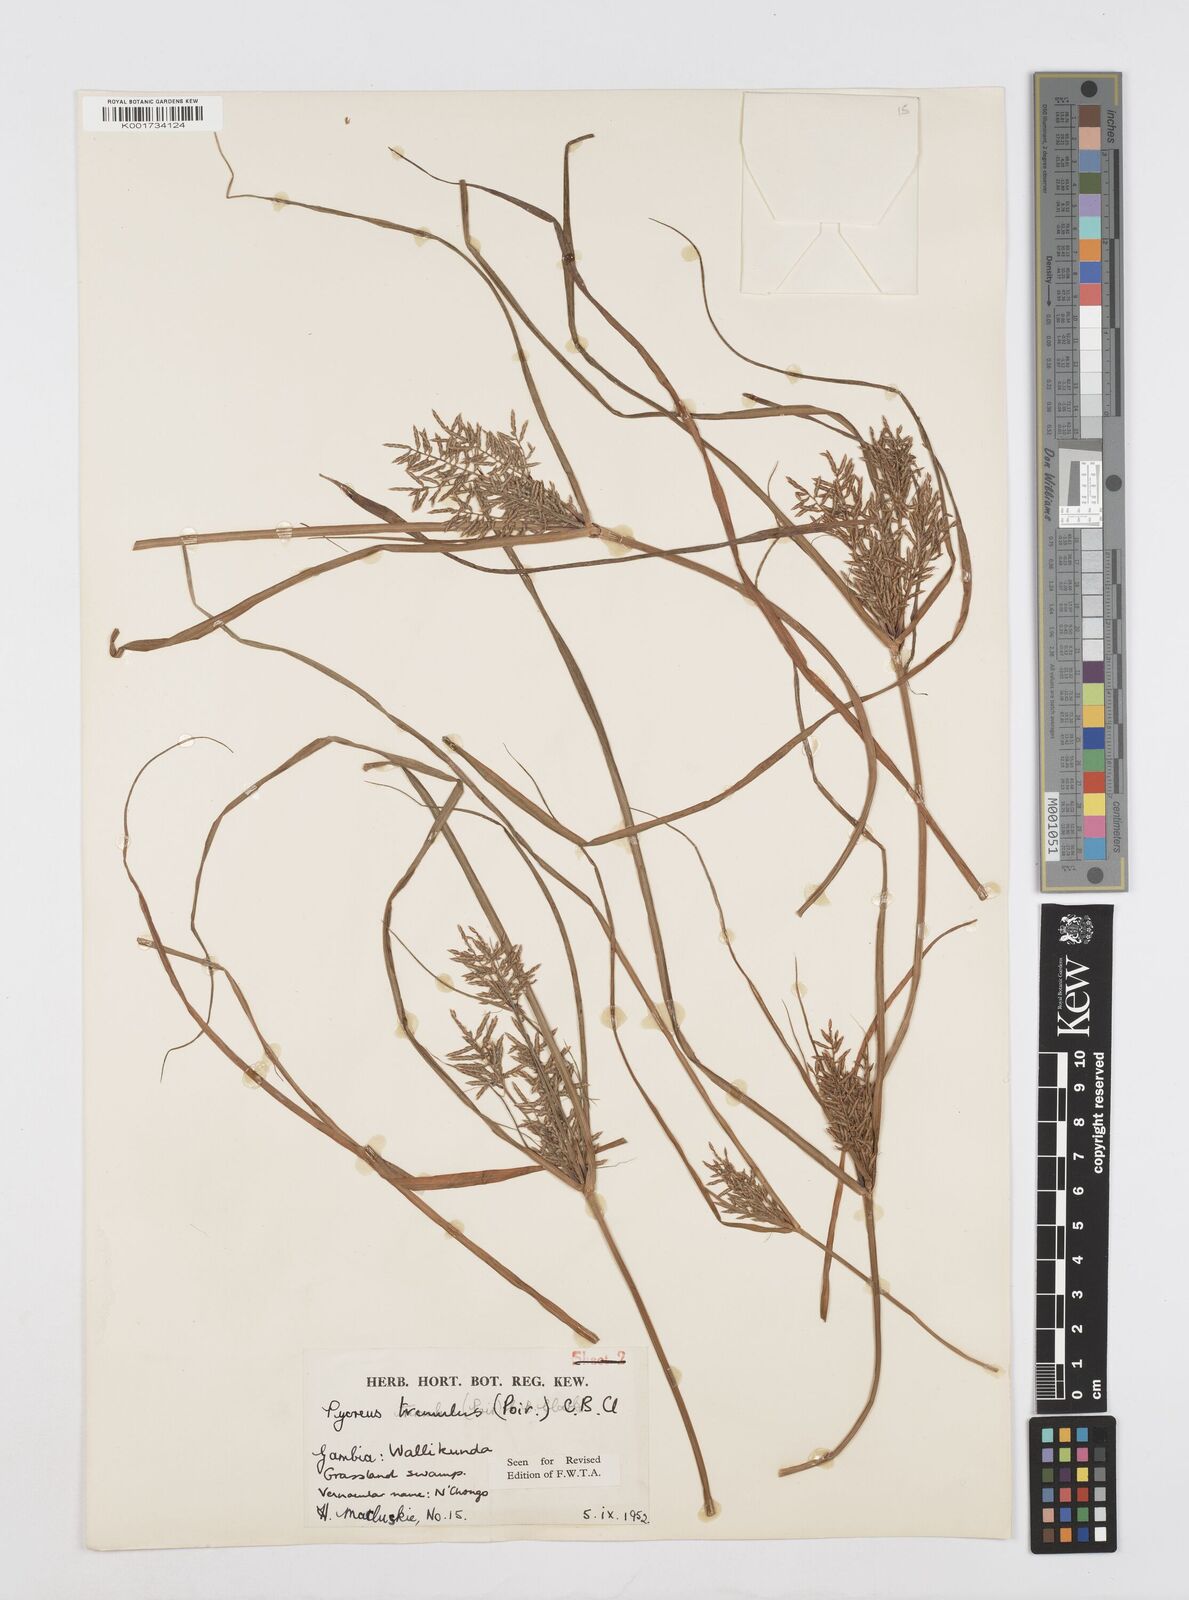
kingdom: Plantae
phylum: Tracheophyta
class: Liliopsida
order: Poales
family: Cyperaceae
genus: Cyperus
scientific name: Cyperus macrostachyos
